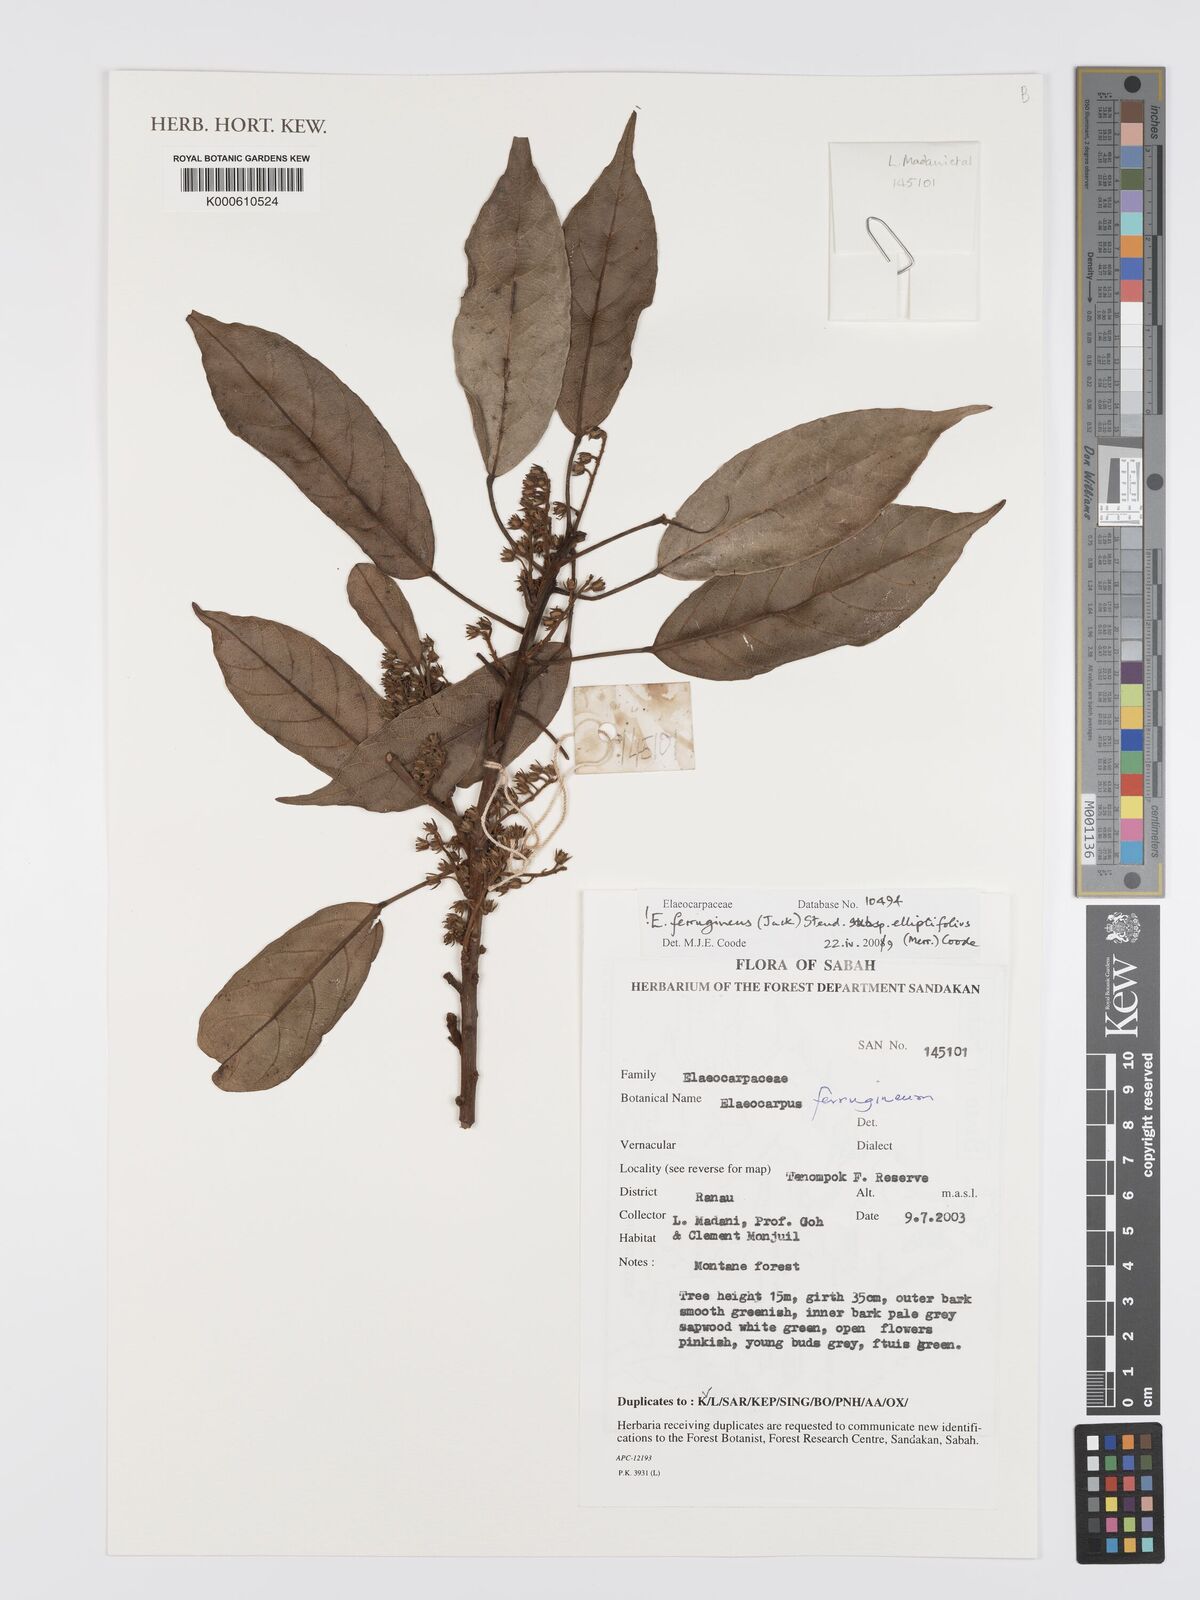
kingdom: Plantae
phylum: Tracheophyta
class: Magnoliopsida
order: Oxalidales
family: Elaeocarpaceae
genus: Elaeocarpus
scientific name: Elaeocarpus ferrugineus
